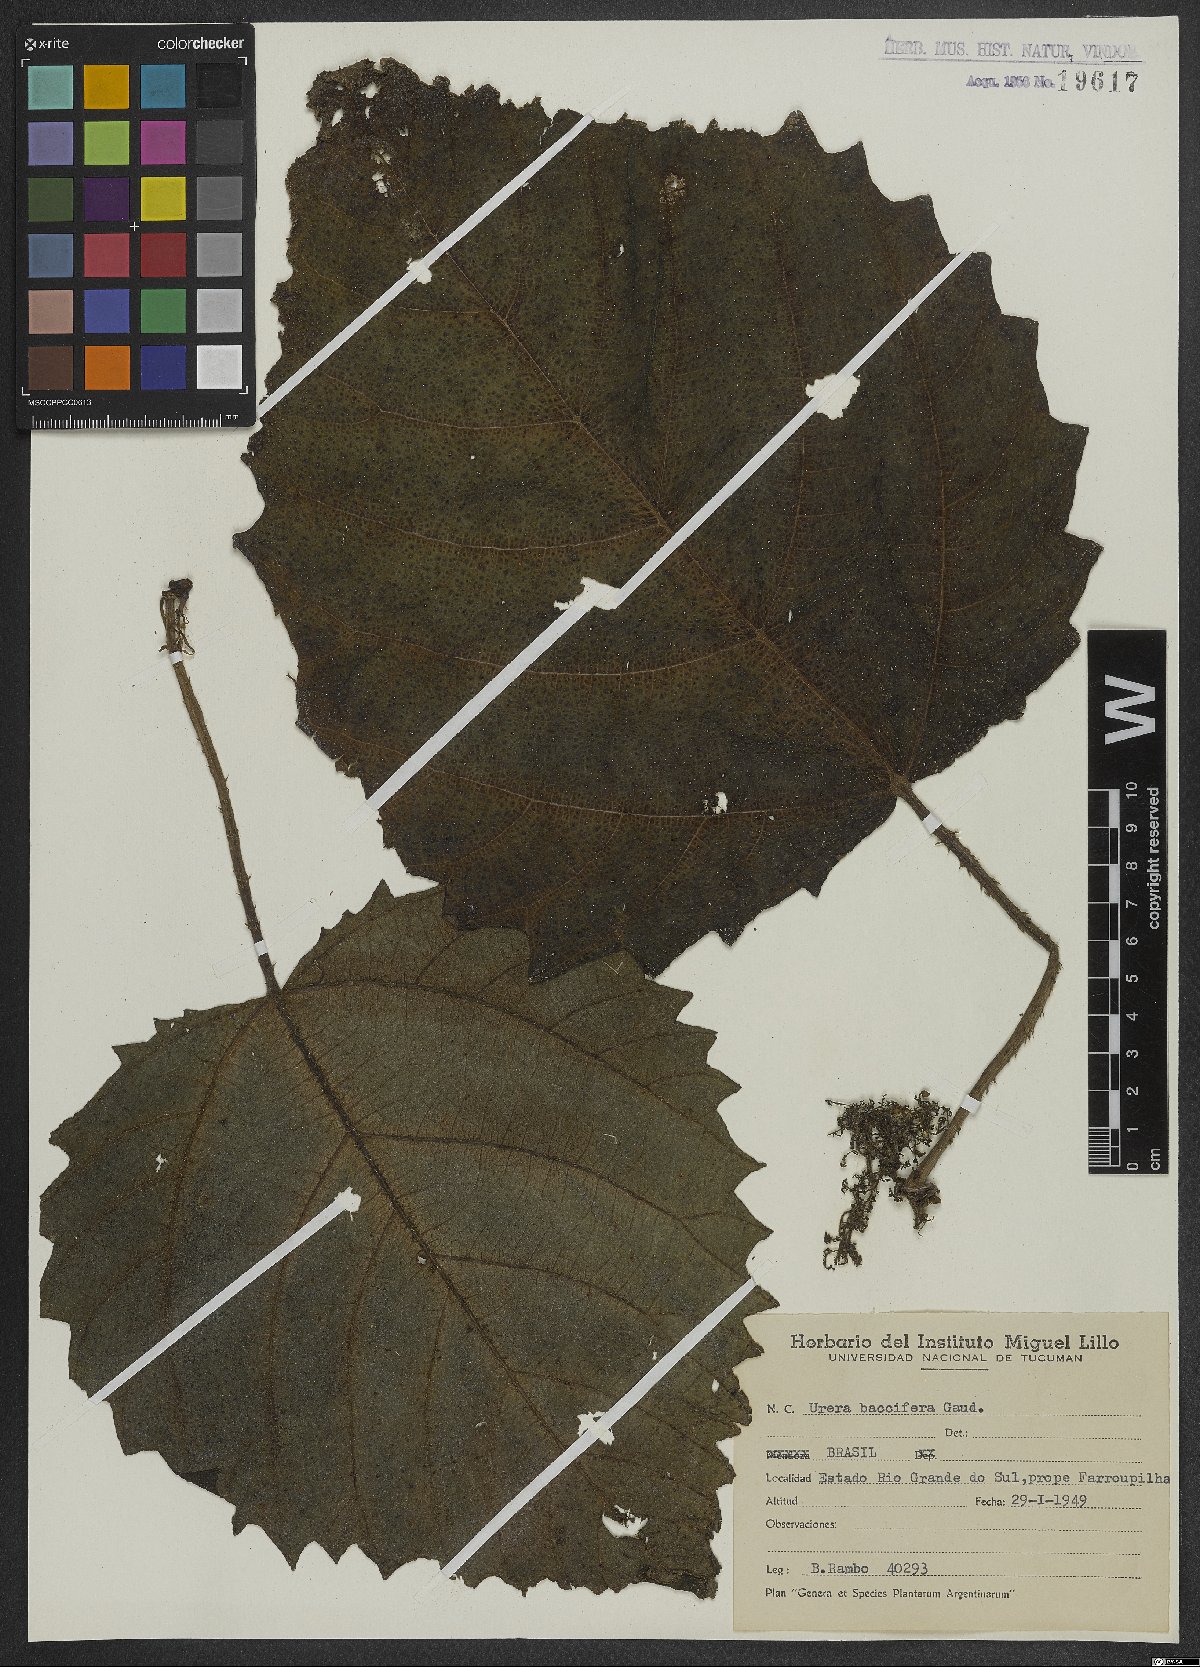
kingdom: Plantae
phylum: Tracheophyta
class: Magnoliopsida
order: Rosales
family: Urticaceae
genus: Urera
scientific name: Urera baccifera
